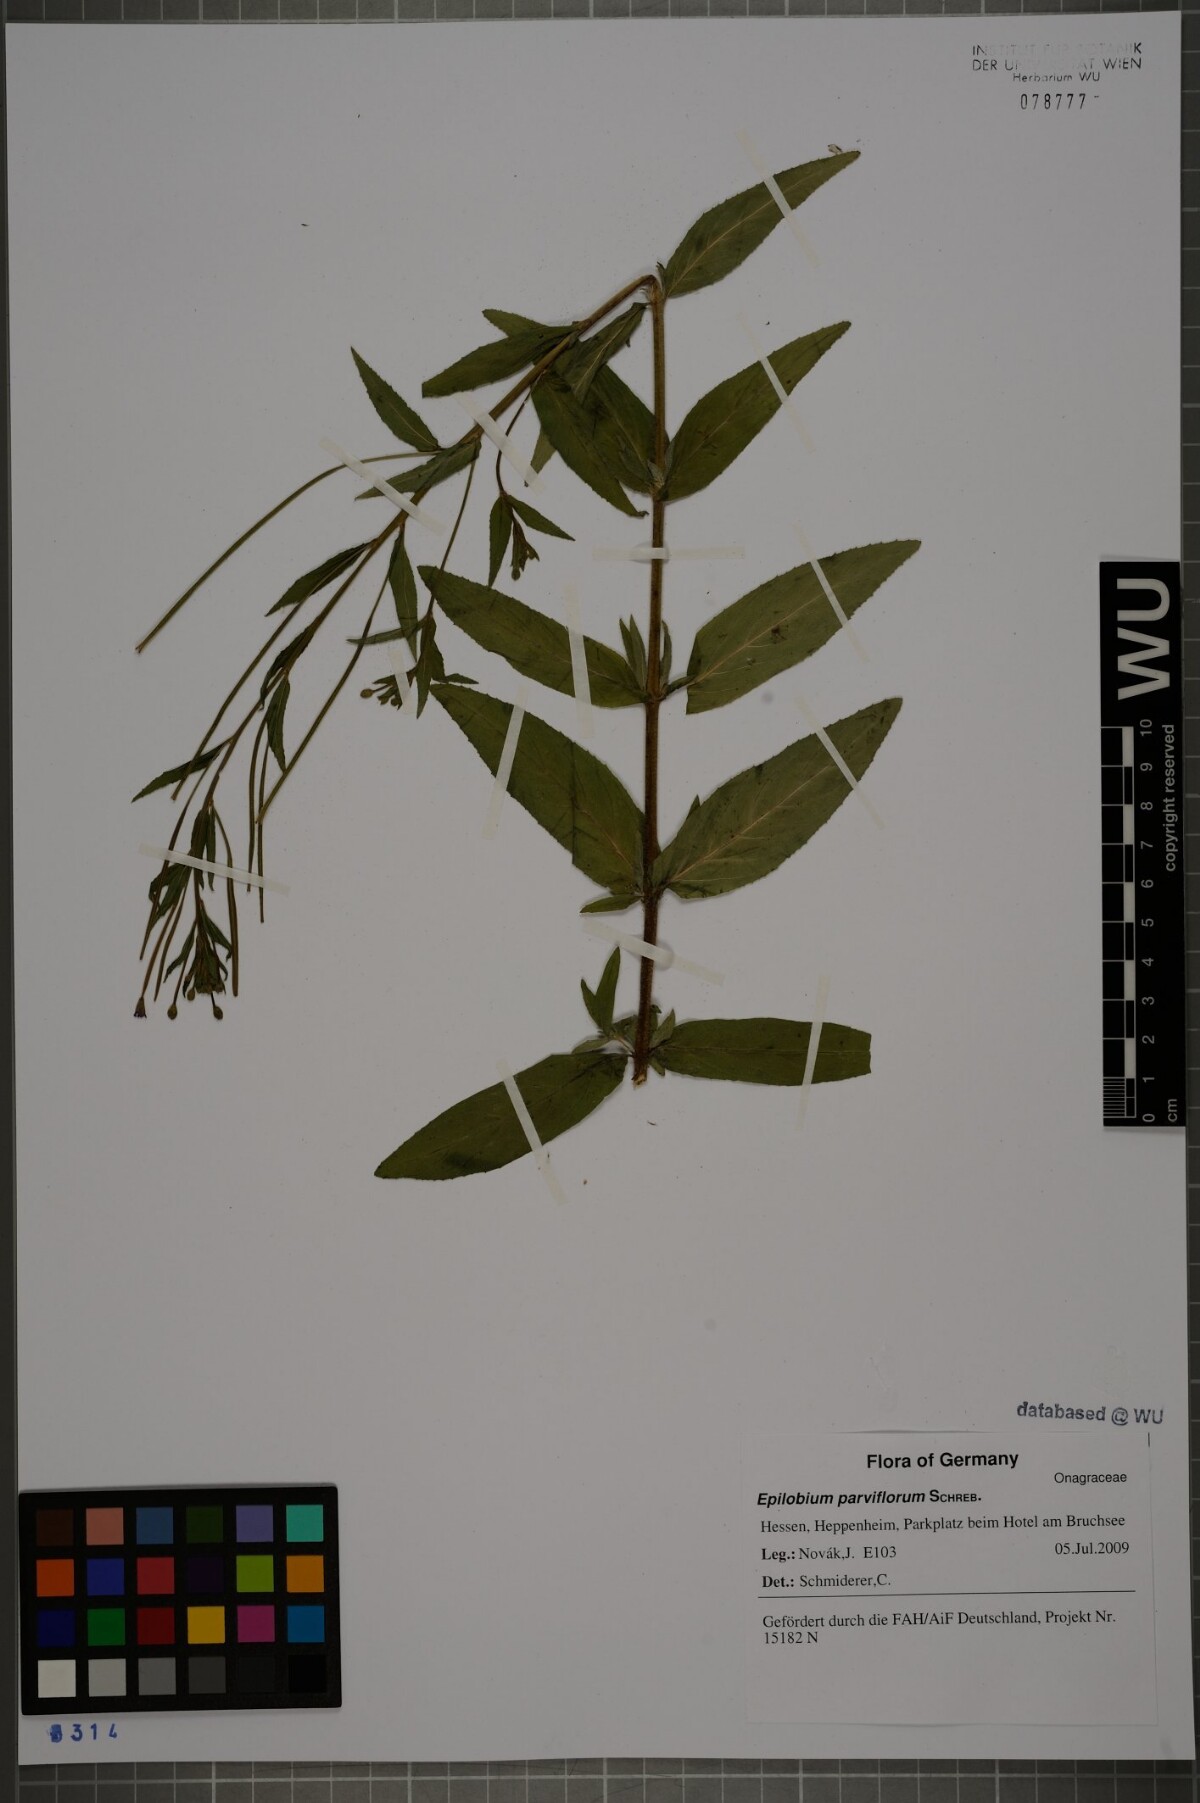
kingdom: Plantae
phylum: Tracheophyta
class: Magnoliopsida
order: Myrtales
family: Onagraceae
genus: Epilobium
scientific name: Epilobium parviflorum
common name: Hoary willowherb
